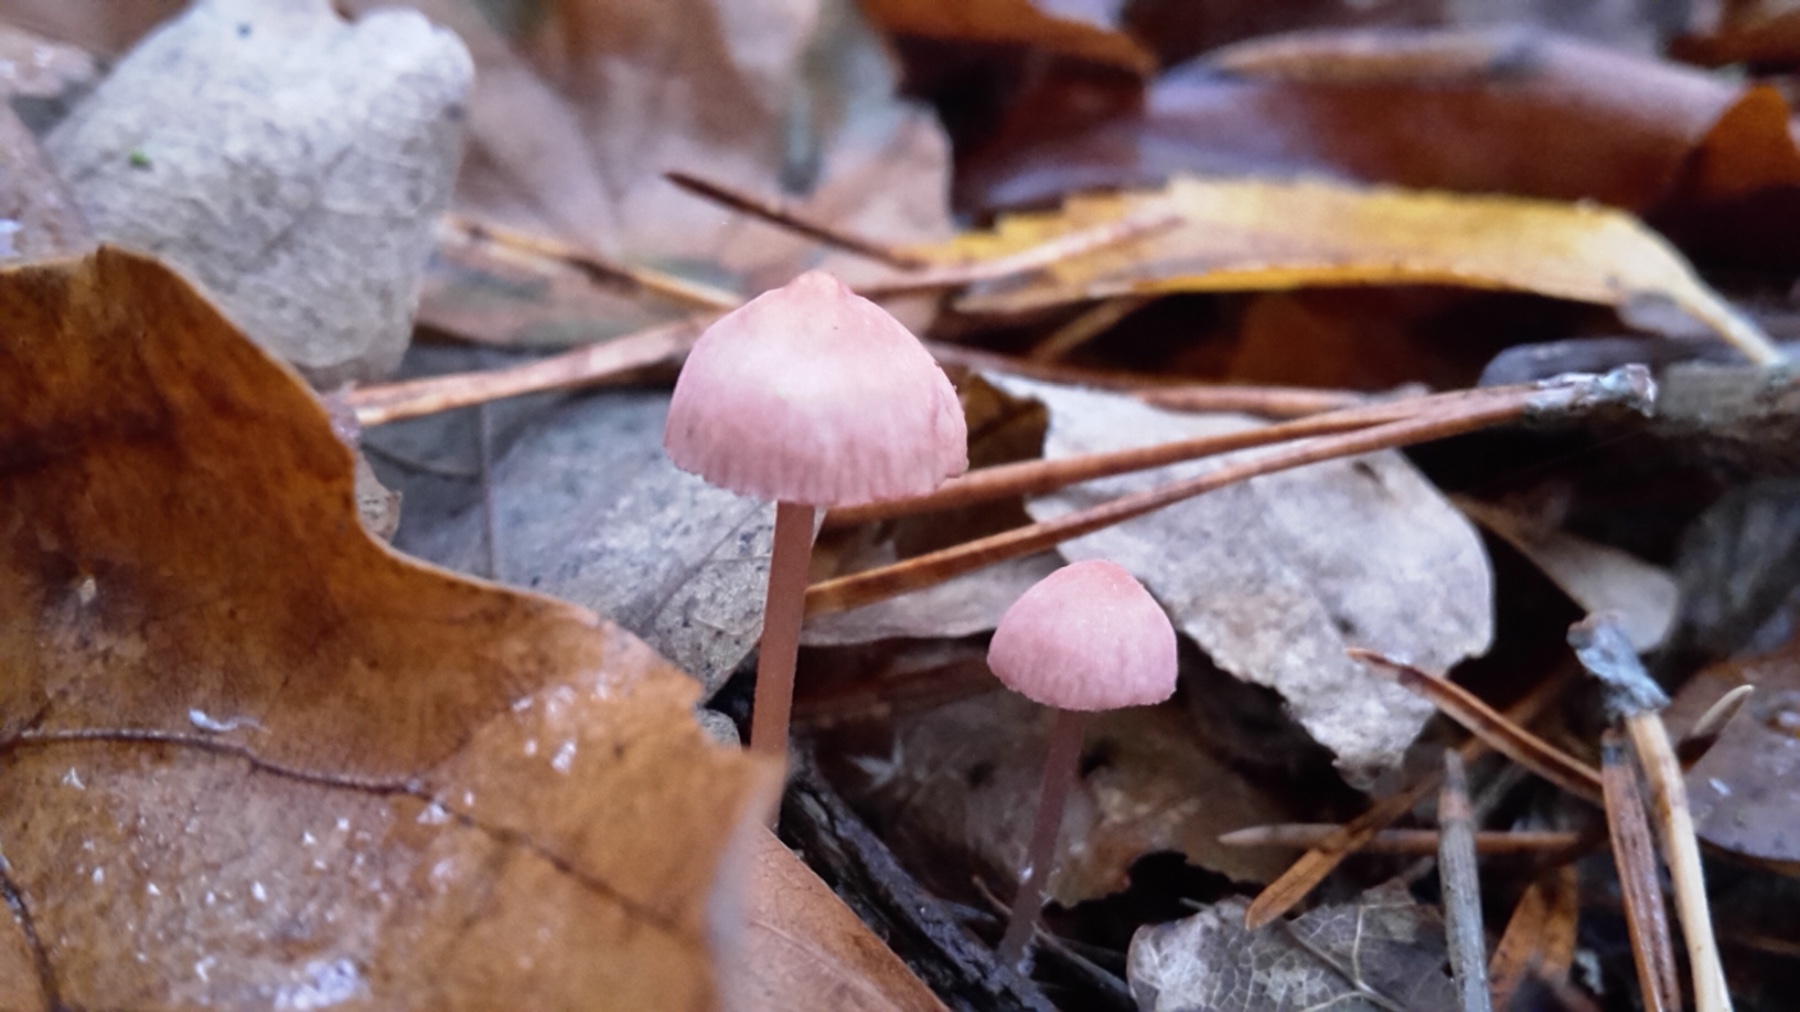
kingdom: Fungi
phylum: Basidiomycota
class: Agaricomycetes
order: Agaricales
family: Mycenaceae
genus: Mycena
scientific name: Mycena rosella
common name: rosenrød huesvamp
